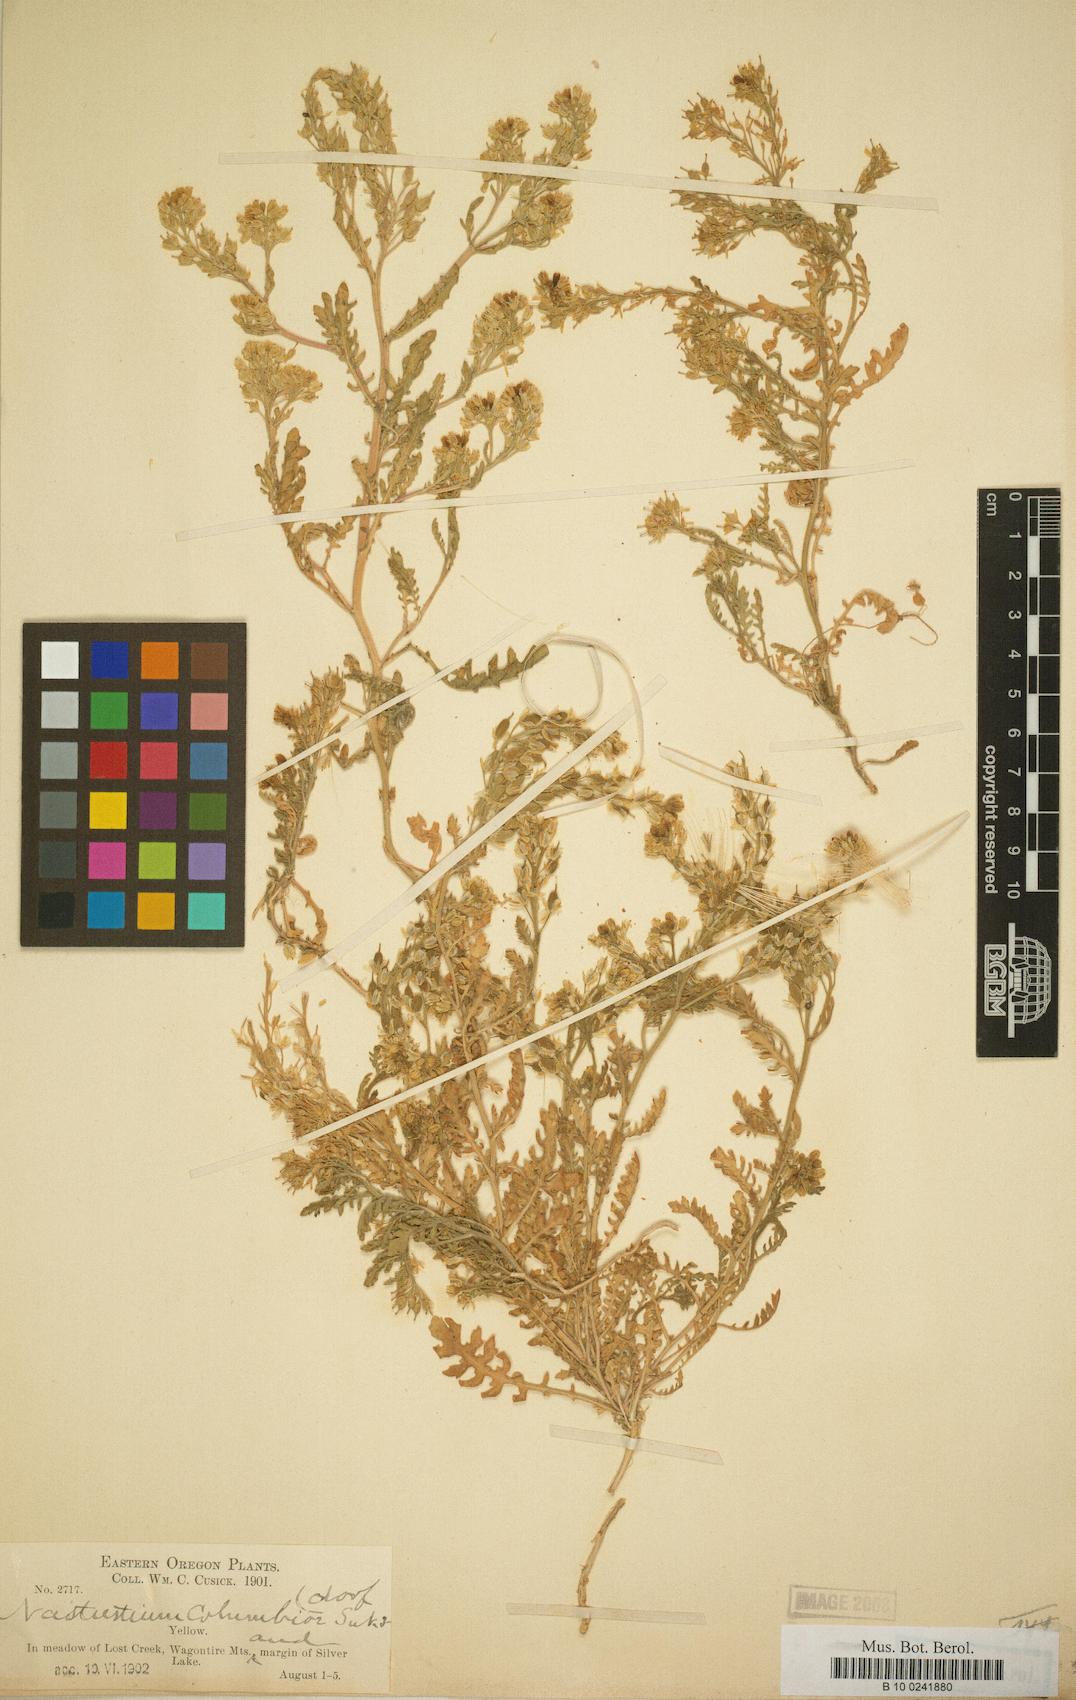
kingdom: Plantae
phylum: Tracheophyta
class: Magnoliopsida
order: Brassicales
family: Brassicaceae
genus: Rorippa
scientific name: Rorippa columbiae
